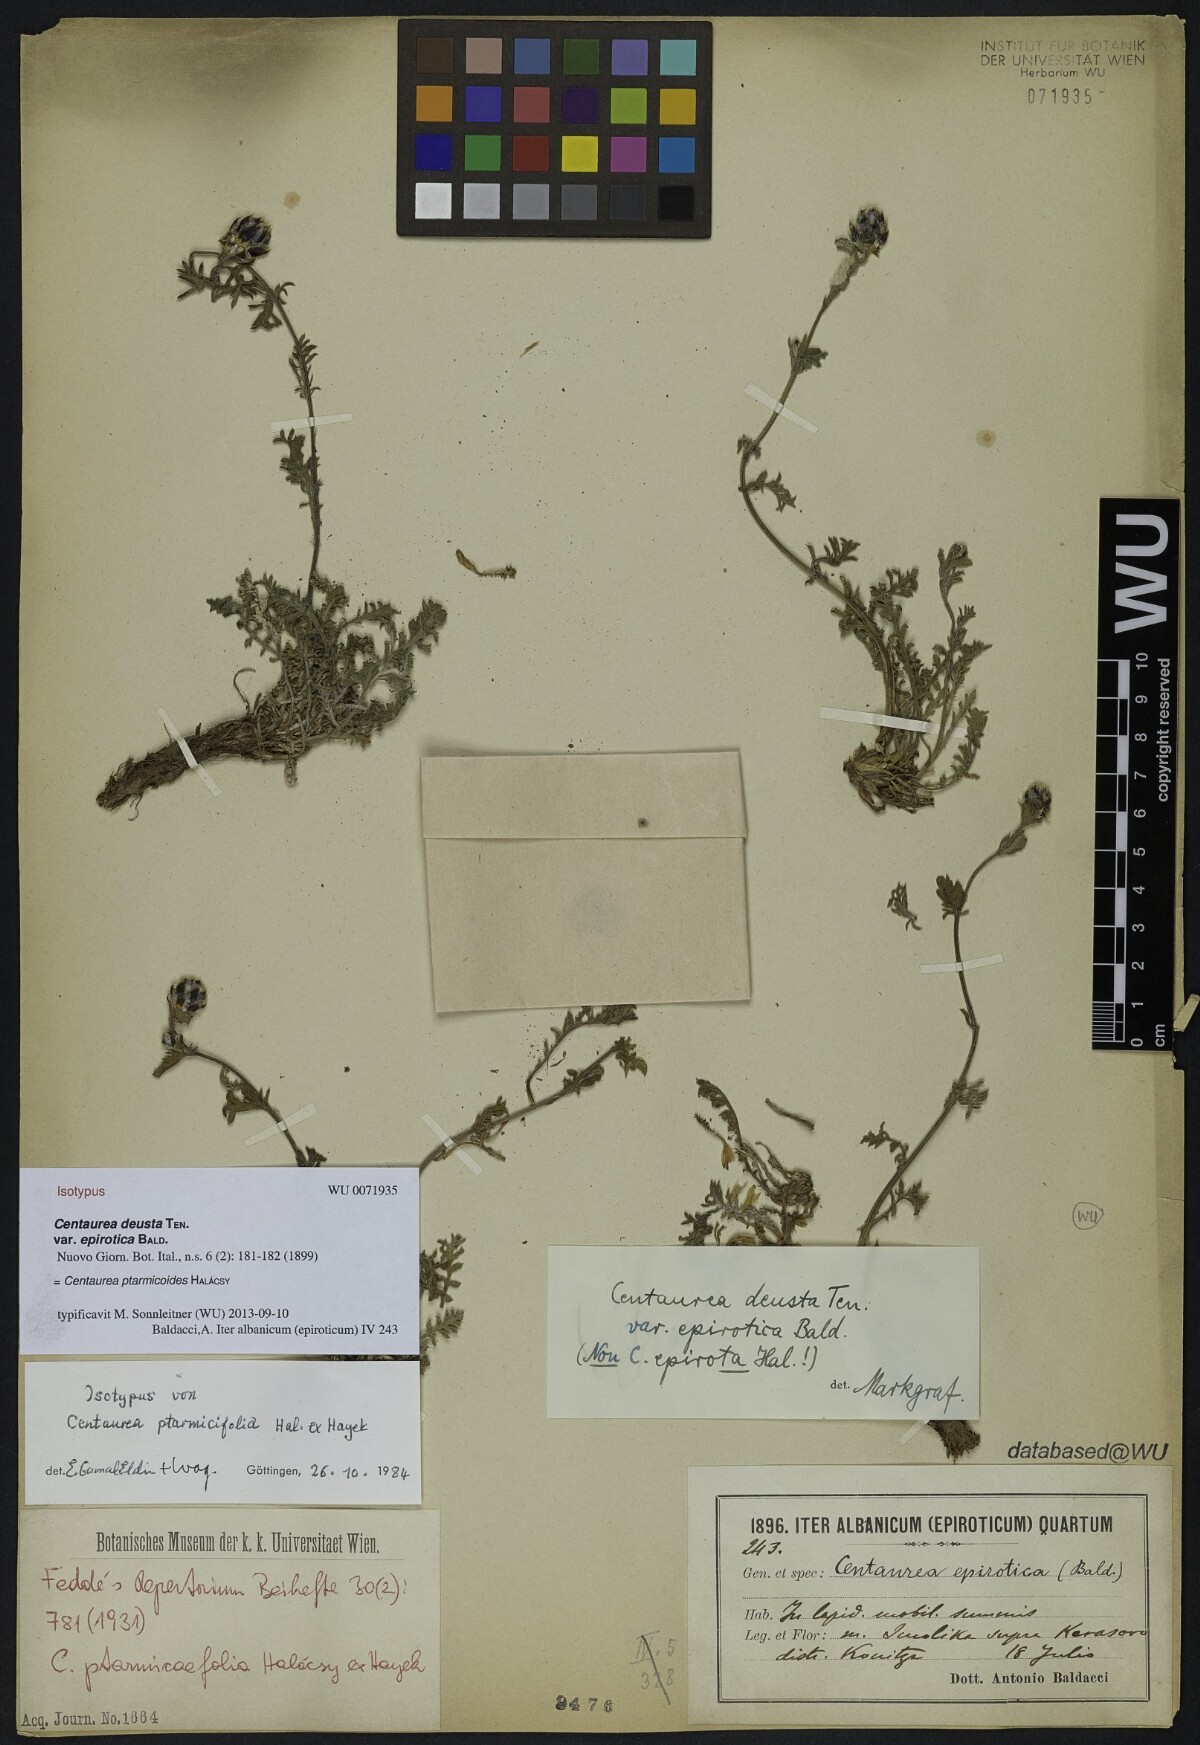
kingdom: Plantae
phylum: Tracheophyta
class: Magnoliopsida
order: Asterales
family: Asteraceae
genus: Centaurea
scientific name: Centaurea ptarmicifolia
